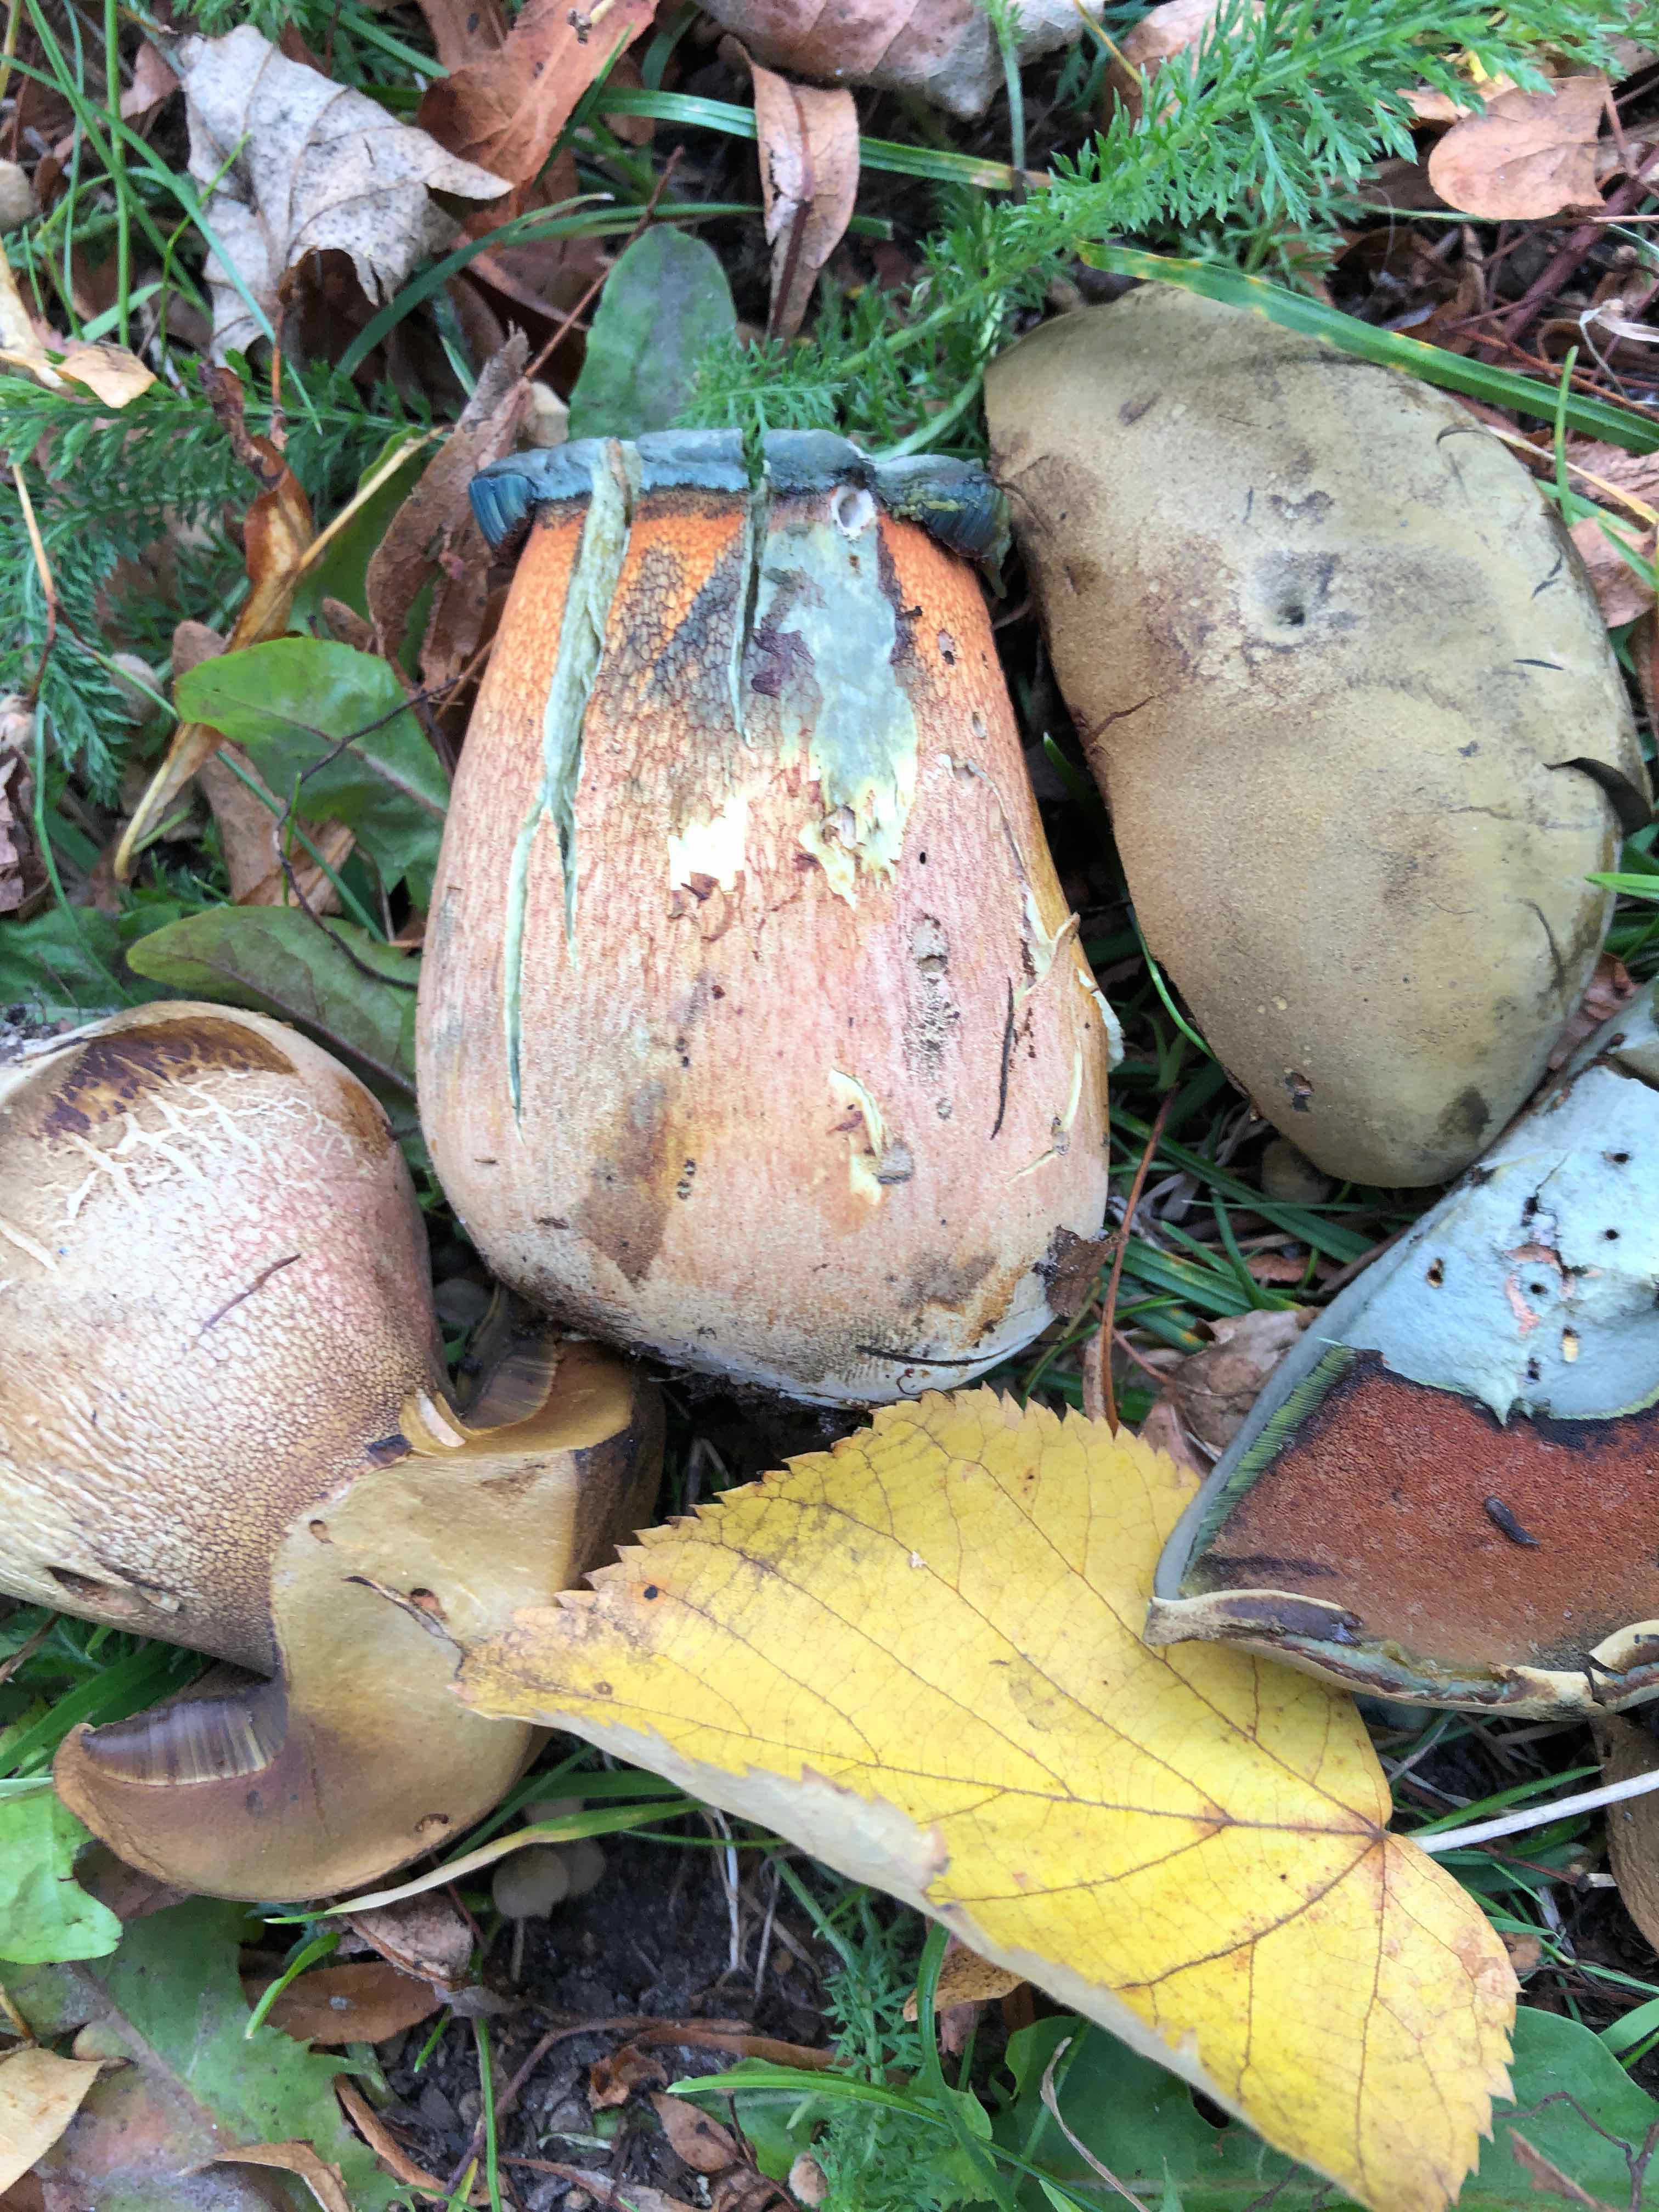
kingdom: Fungi
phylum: Basidiomycota
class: Agaricomycetes
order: Boletales
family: Boletaceae
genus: Suillellus
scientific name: Suillellus luridus
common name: netstokket indigorørhat
